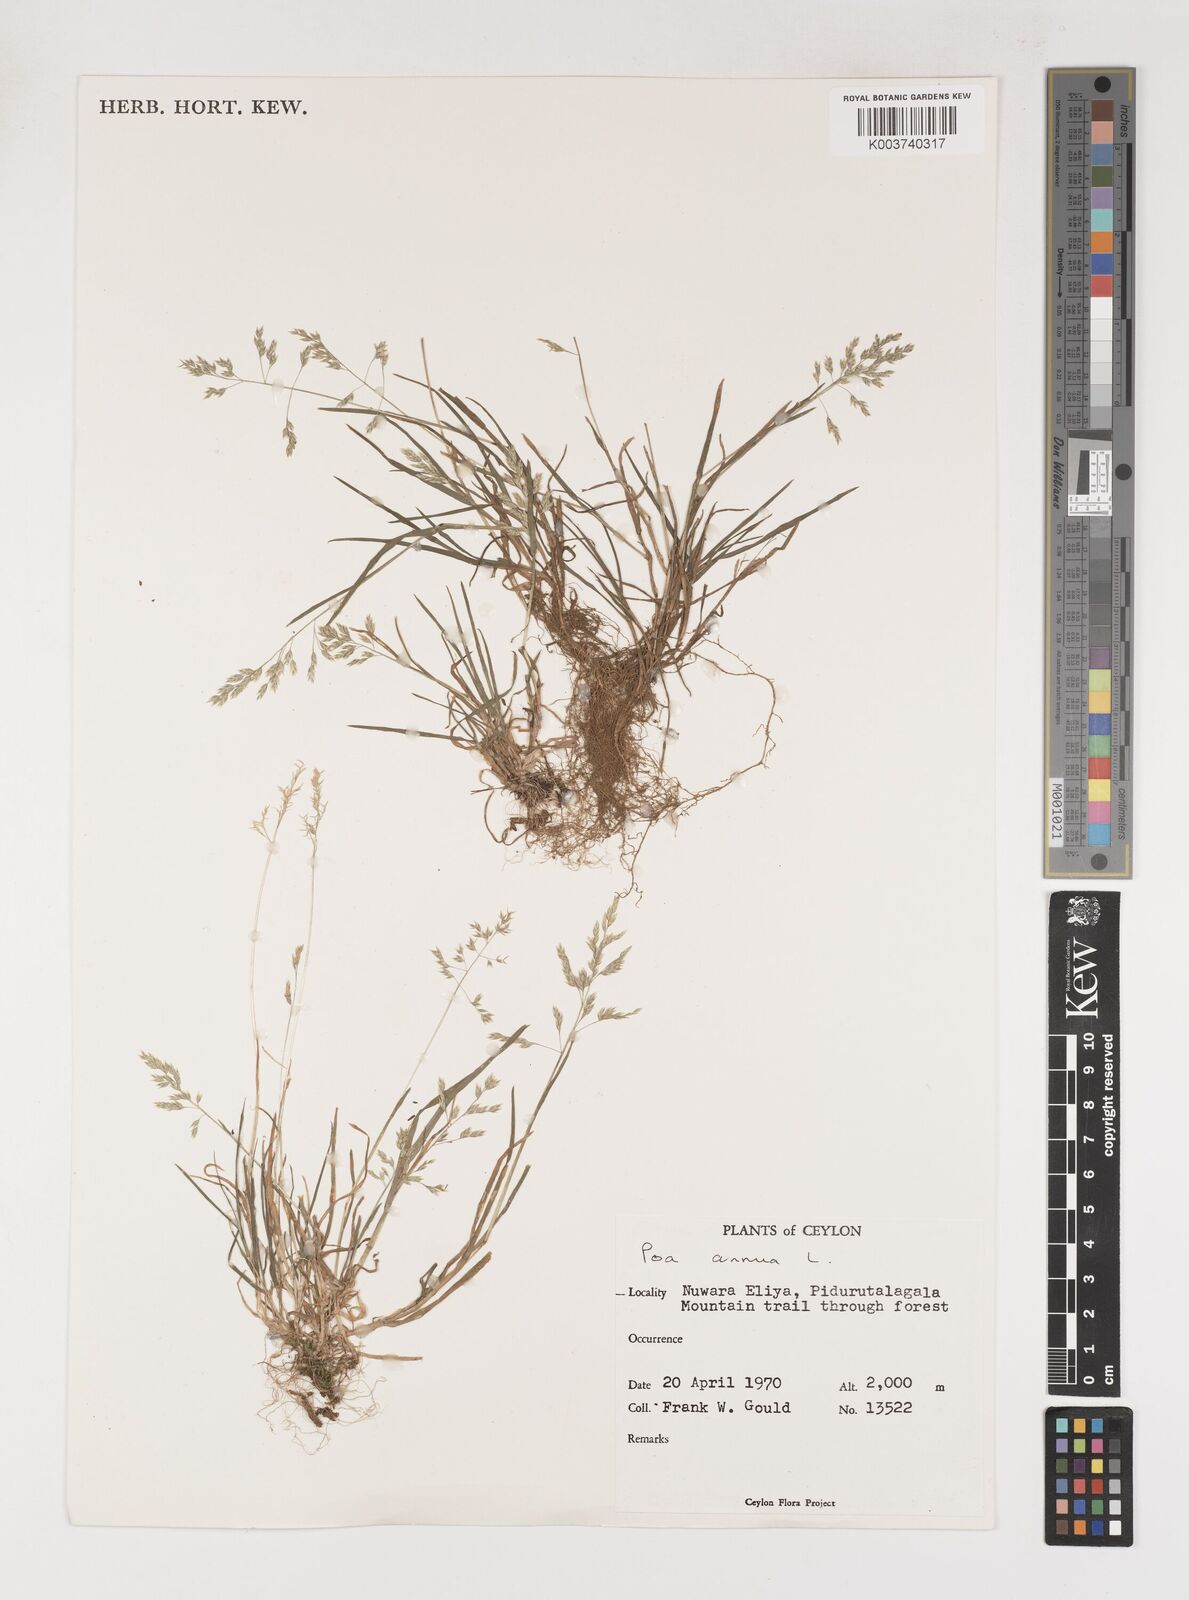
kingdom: Plantae
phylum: Tracheophyta
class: Liliopsida
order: Poales
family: Poaceae
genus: Poa
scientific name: Poa annua
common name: Annual bluegrass
